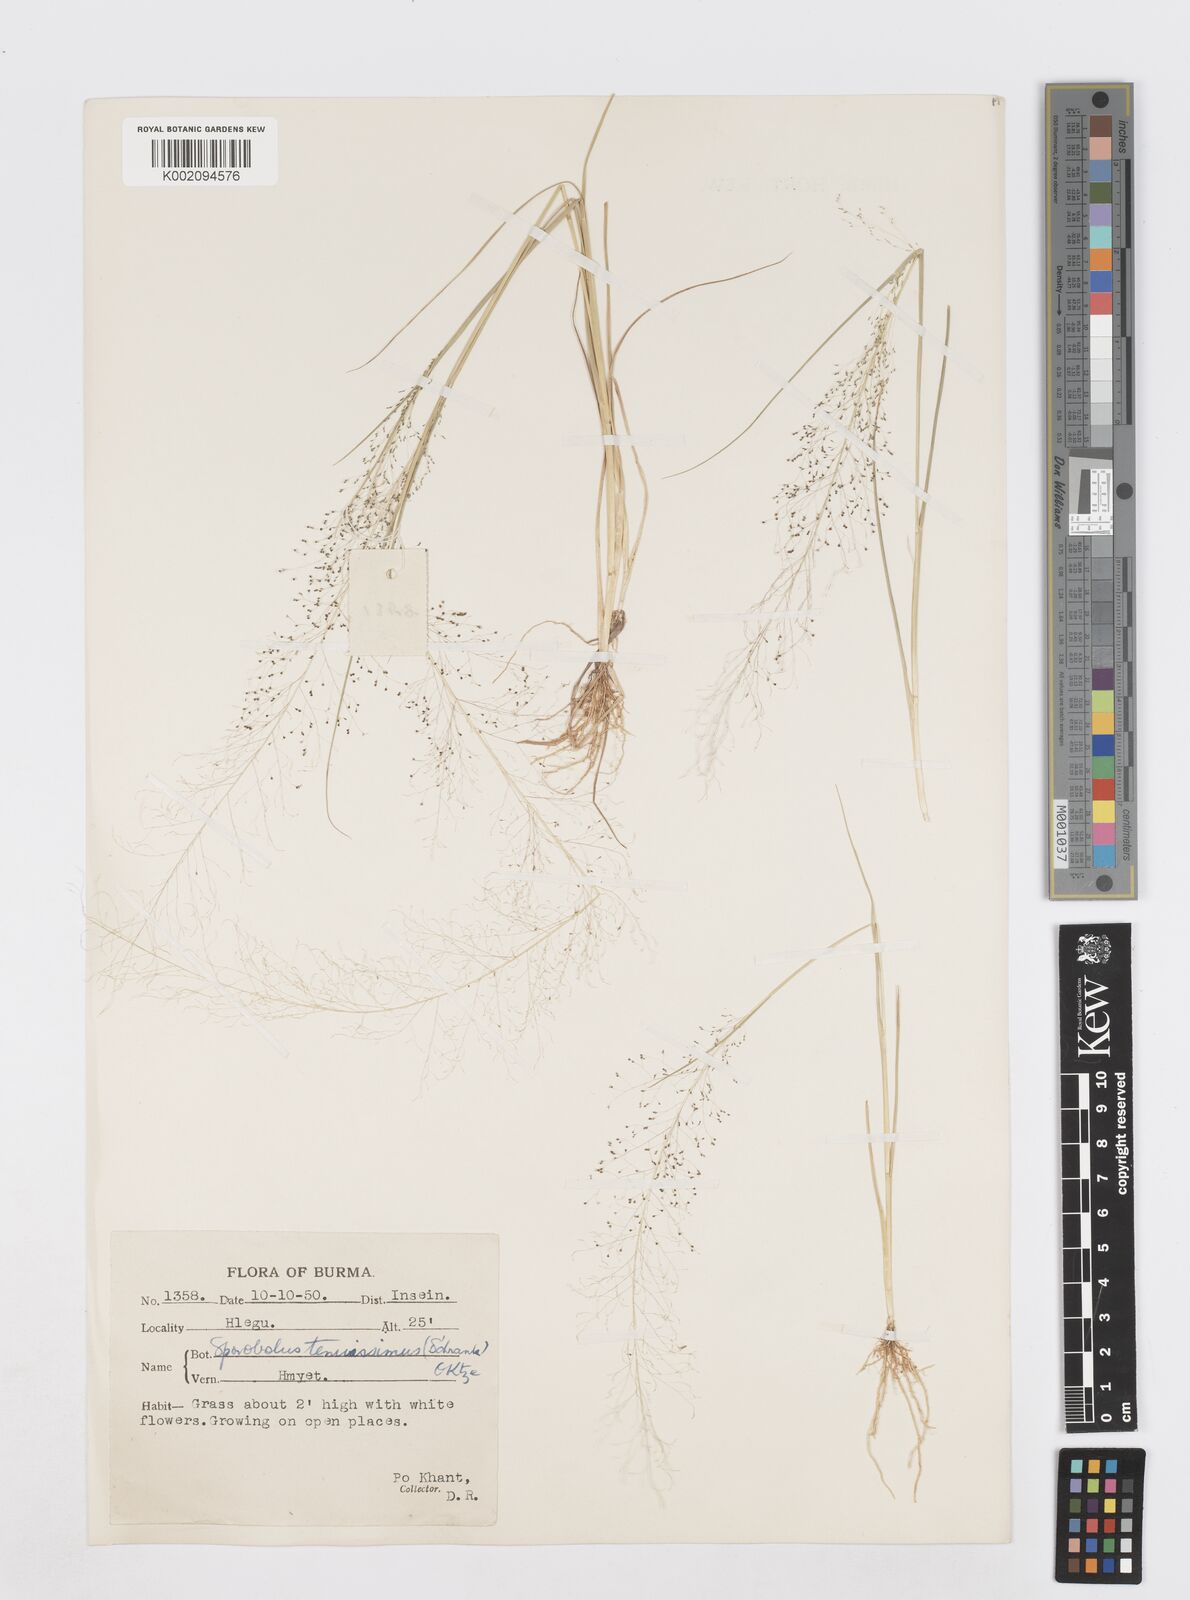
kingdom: Plantae
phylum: Tracheophyta
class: Liliopsida
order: Poales
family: Poaceae
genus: Sporobolus
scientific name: Sporobolus tenuissimus
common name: Tropical dropseed
